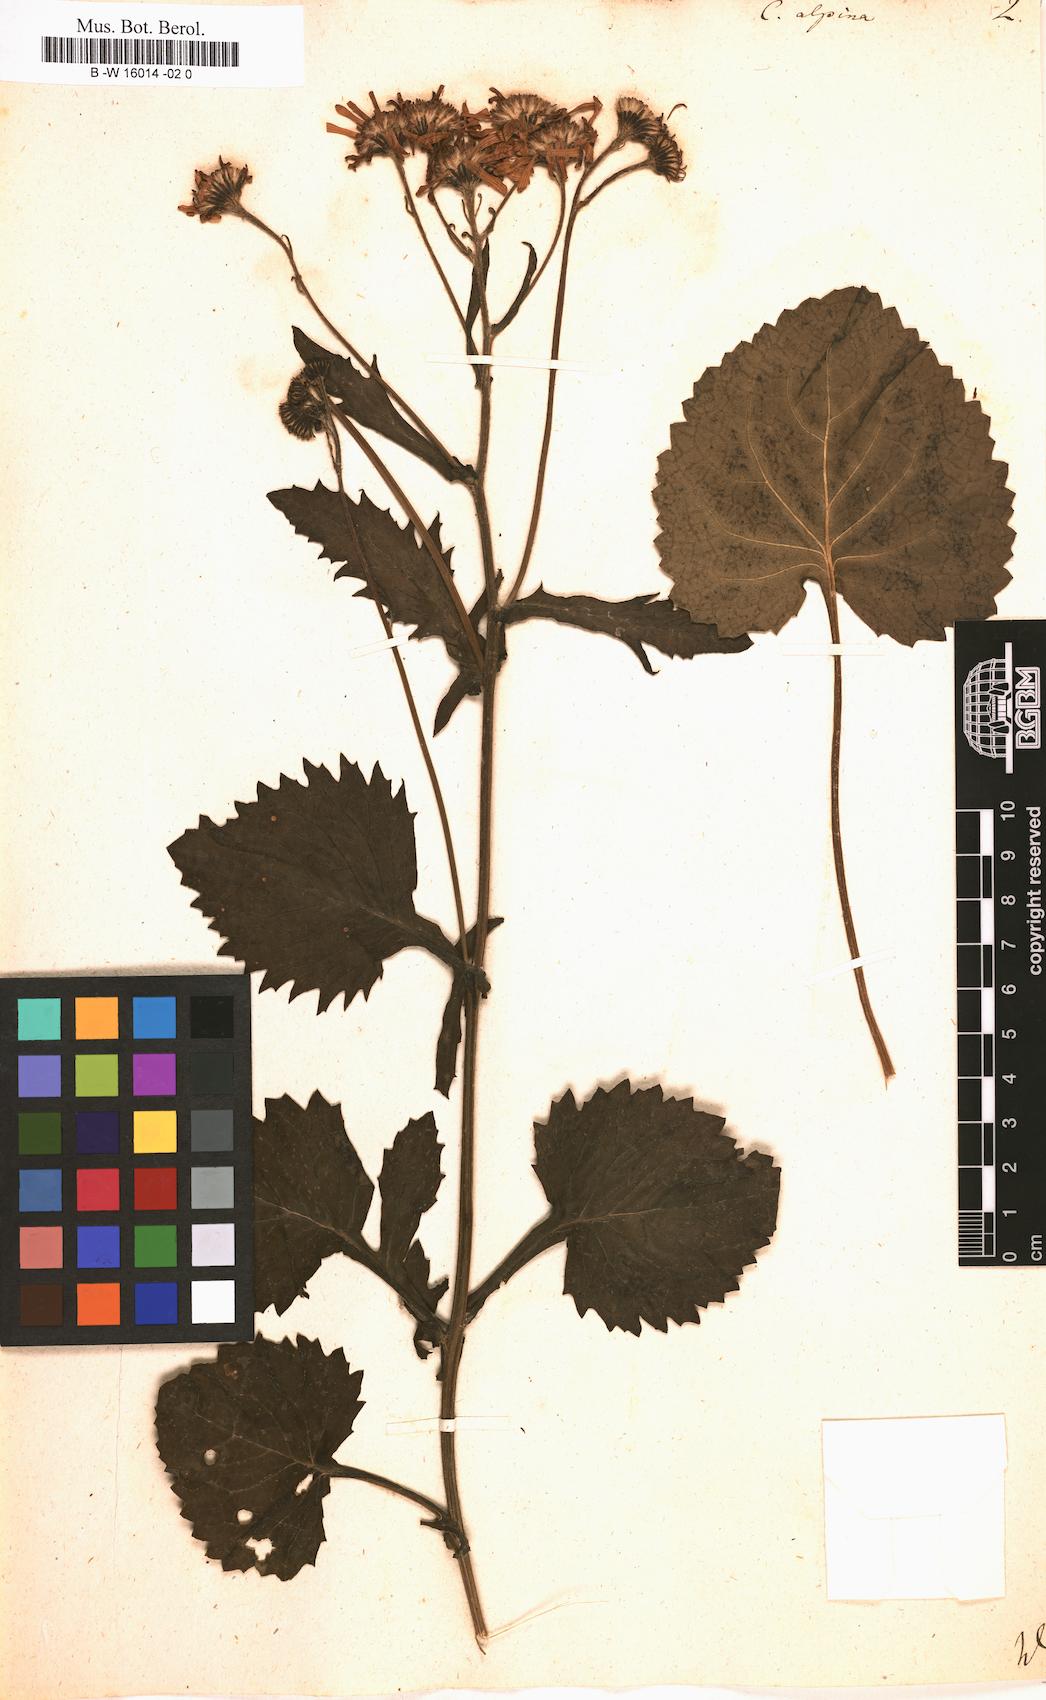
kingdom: Plantae
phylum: Tracheophyta
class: Magnoliopsida
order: Asterales
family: Asteraceae
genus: Jacobaea
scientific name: Jacobaea alpina
